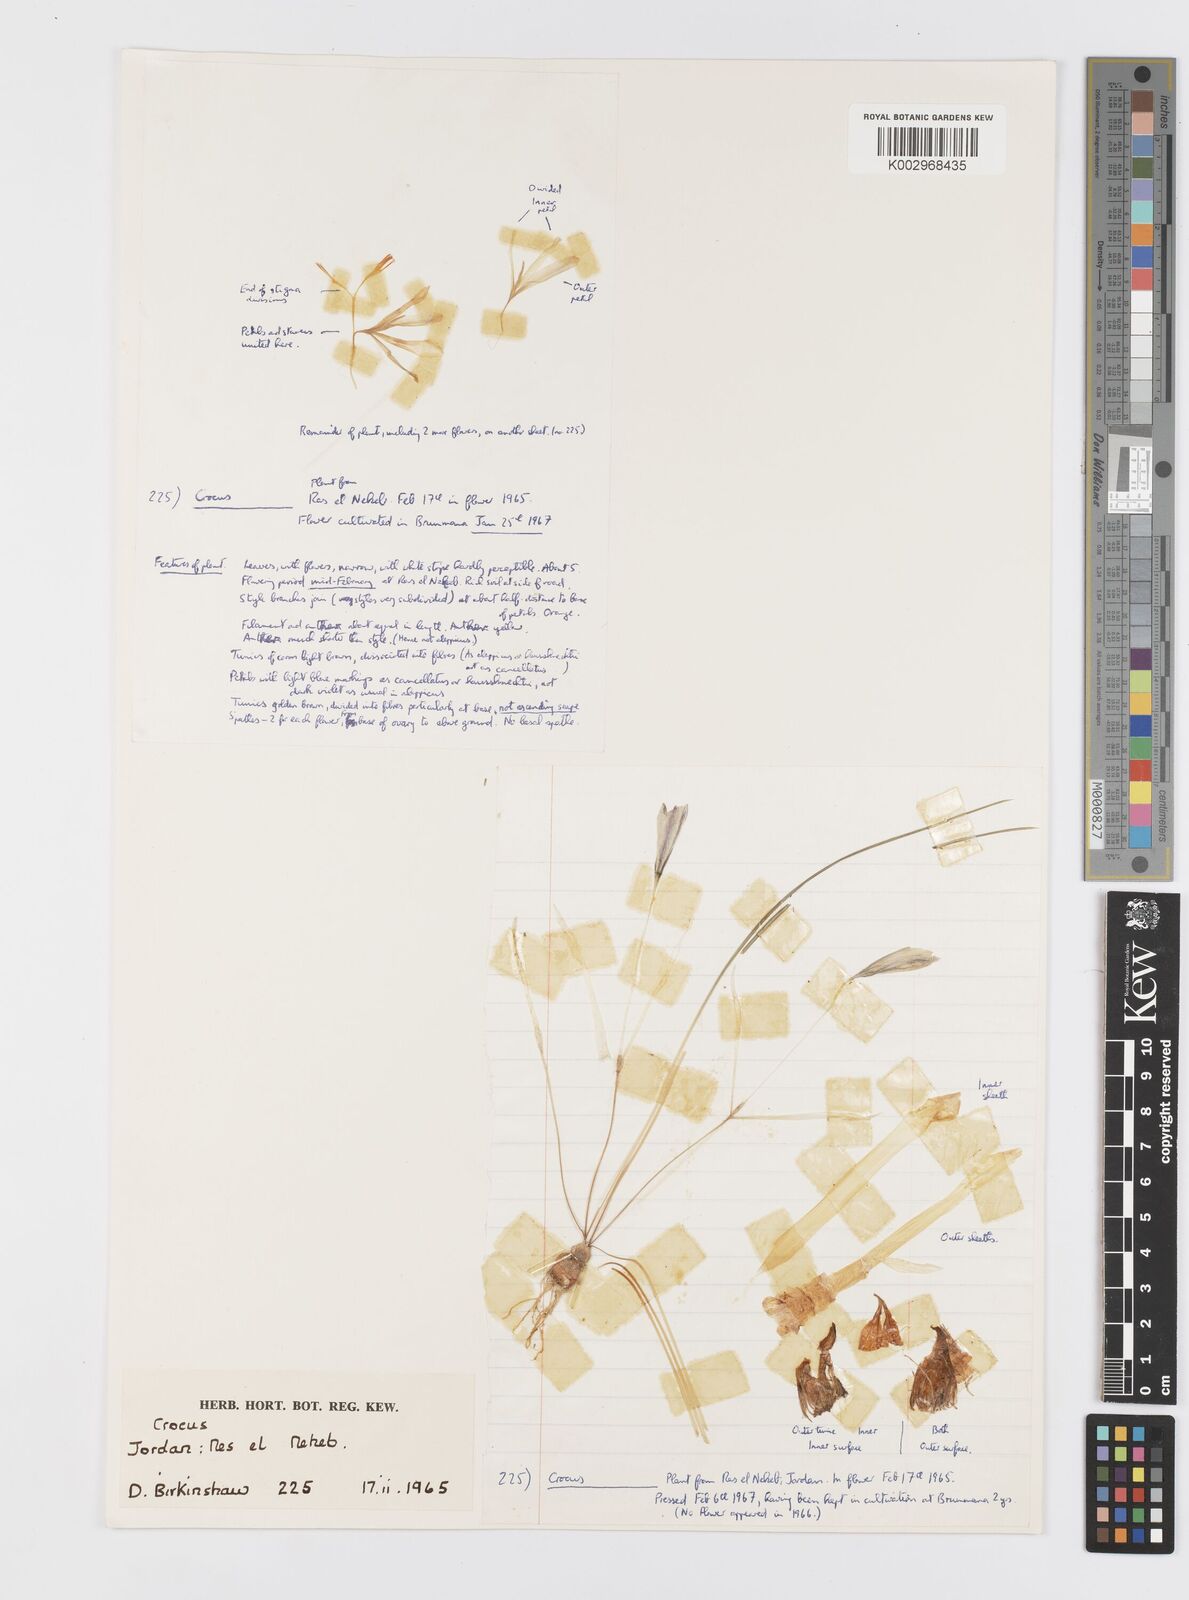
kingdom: Plantae
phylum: Tracheophyta
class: Liliopsida
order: Asparagales
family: Iridaceae
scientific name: Iridaceae
